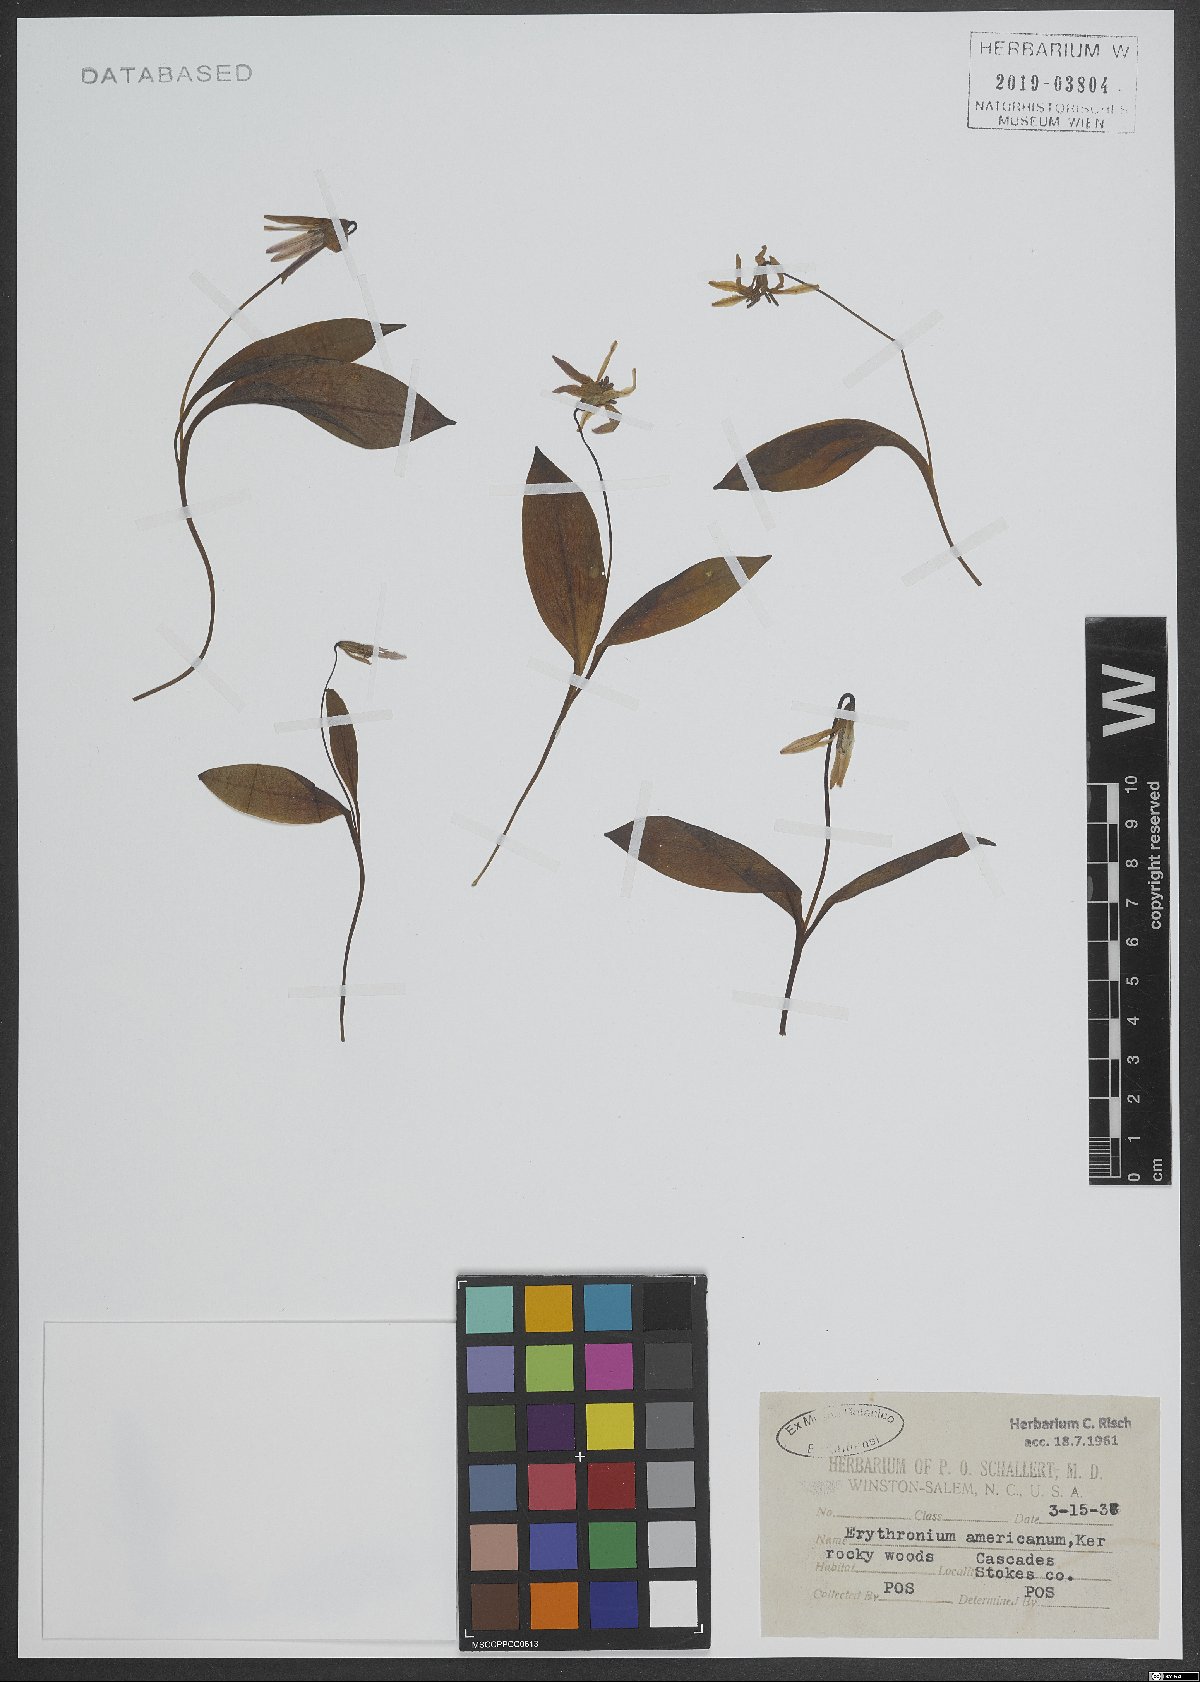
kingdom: Plantae
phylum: Tracheophyta
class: Liliopsida
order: Liliales
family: Liliaceae
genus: Erythronium
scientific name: Erythronium americanum
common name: Yellow adder's-tongue
